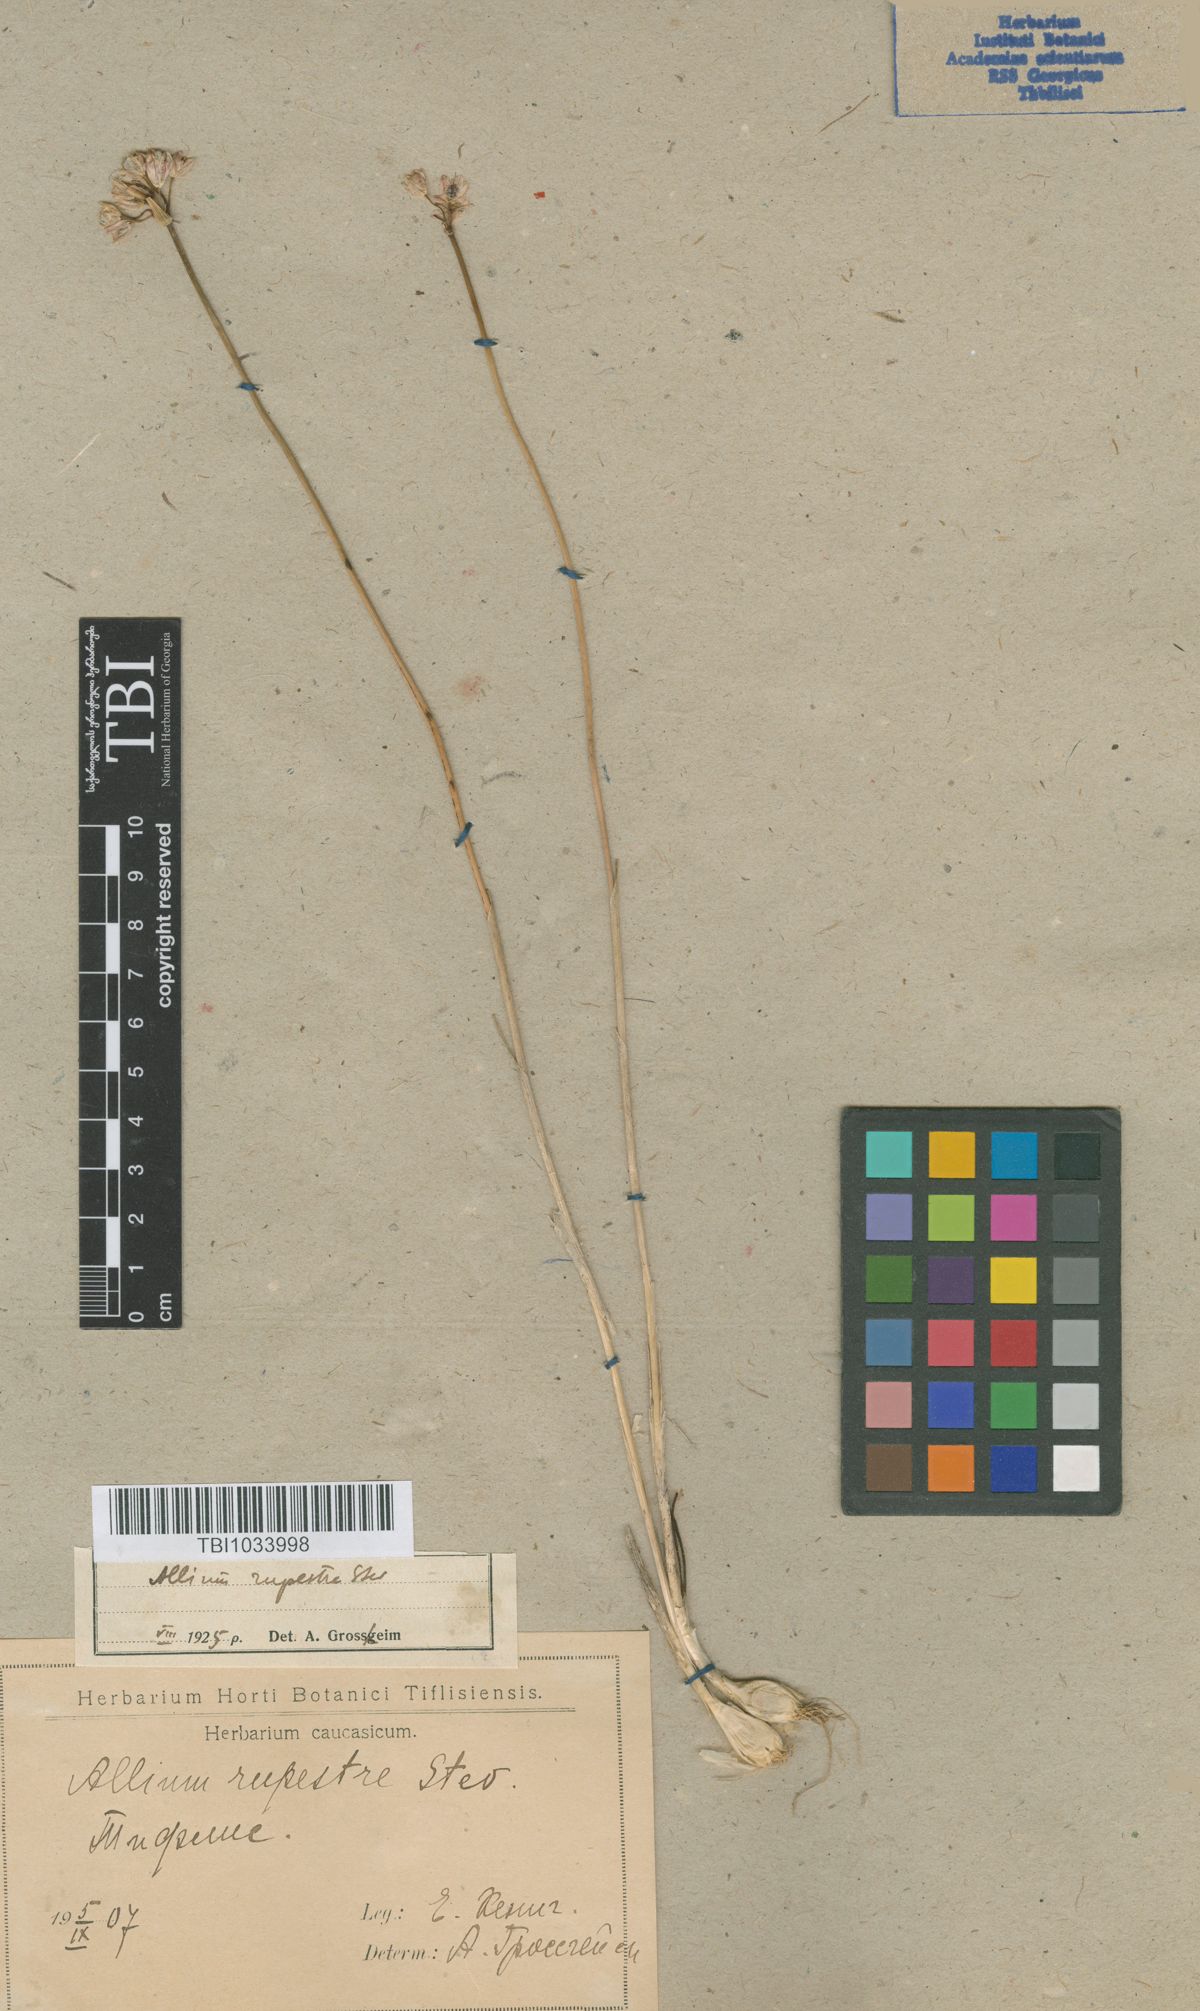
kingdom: Plantae
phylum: Tracheophyta
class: Liliopsida
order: Asparagales
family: Amaryllidaceae
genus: Allium
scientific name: Allium rupestre
